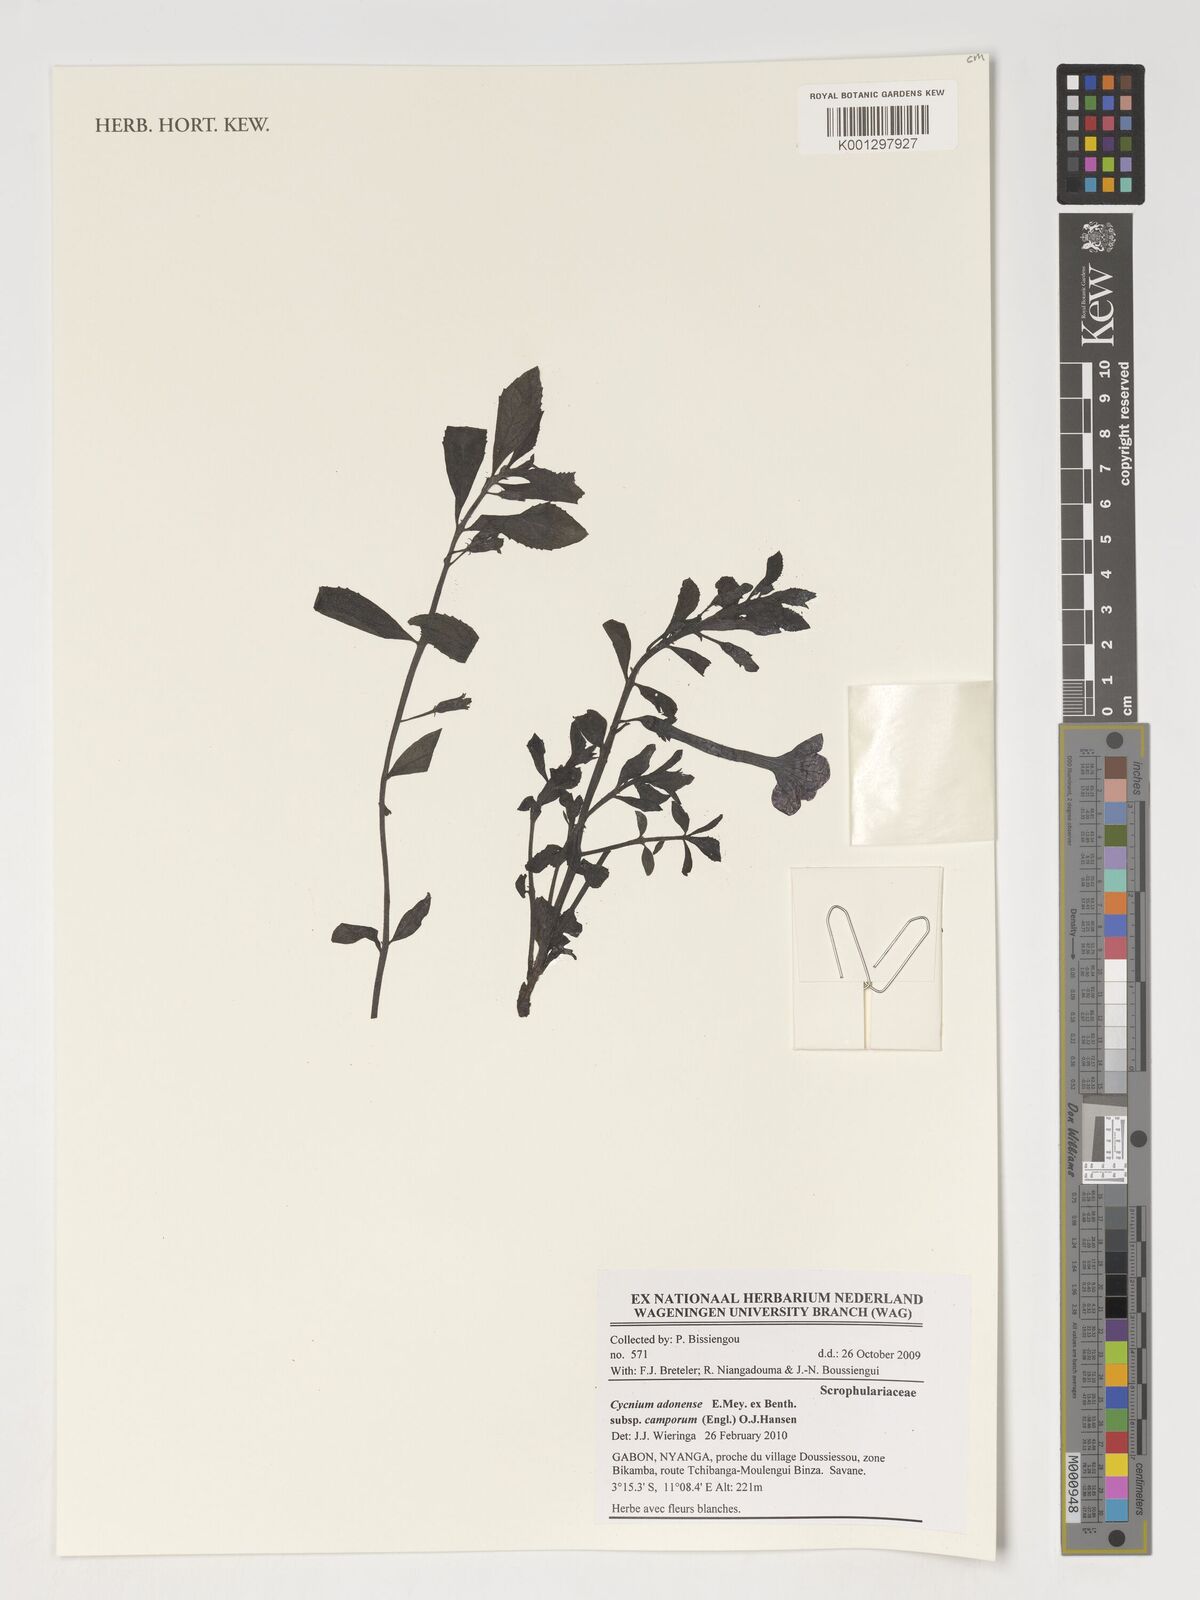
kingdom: Plantae
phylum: Tracheophyta
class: Magnoliopsida
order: Lamiales
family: Orobanchaceae
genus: Cycnium
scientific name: Cycnium adoense
